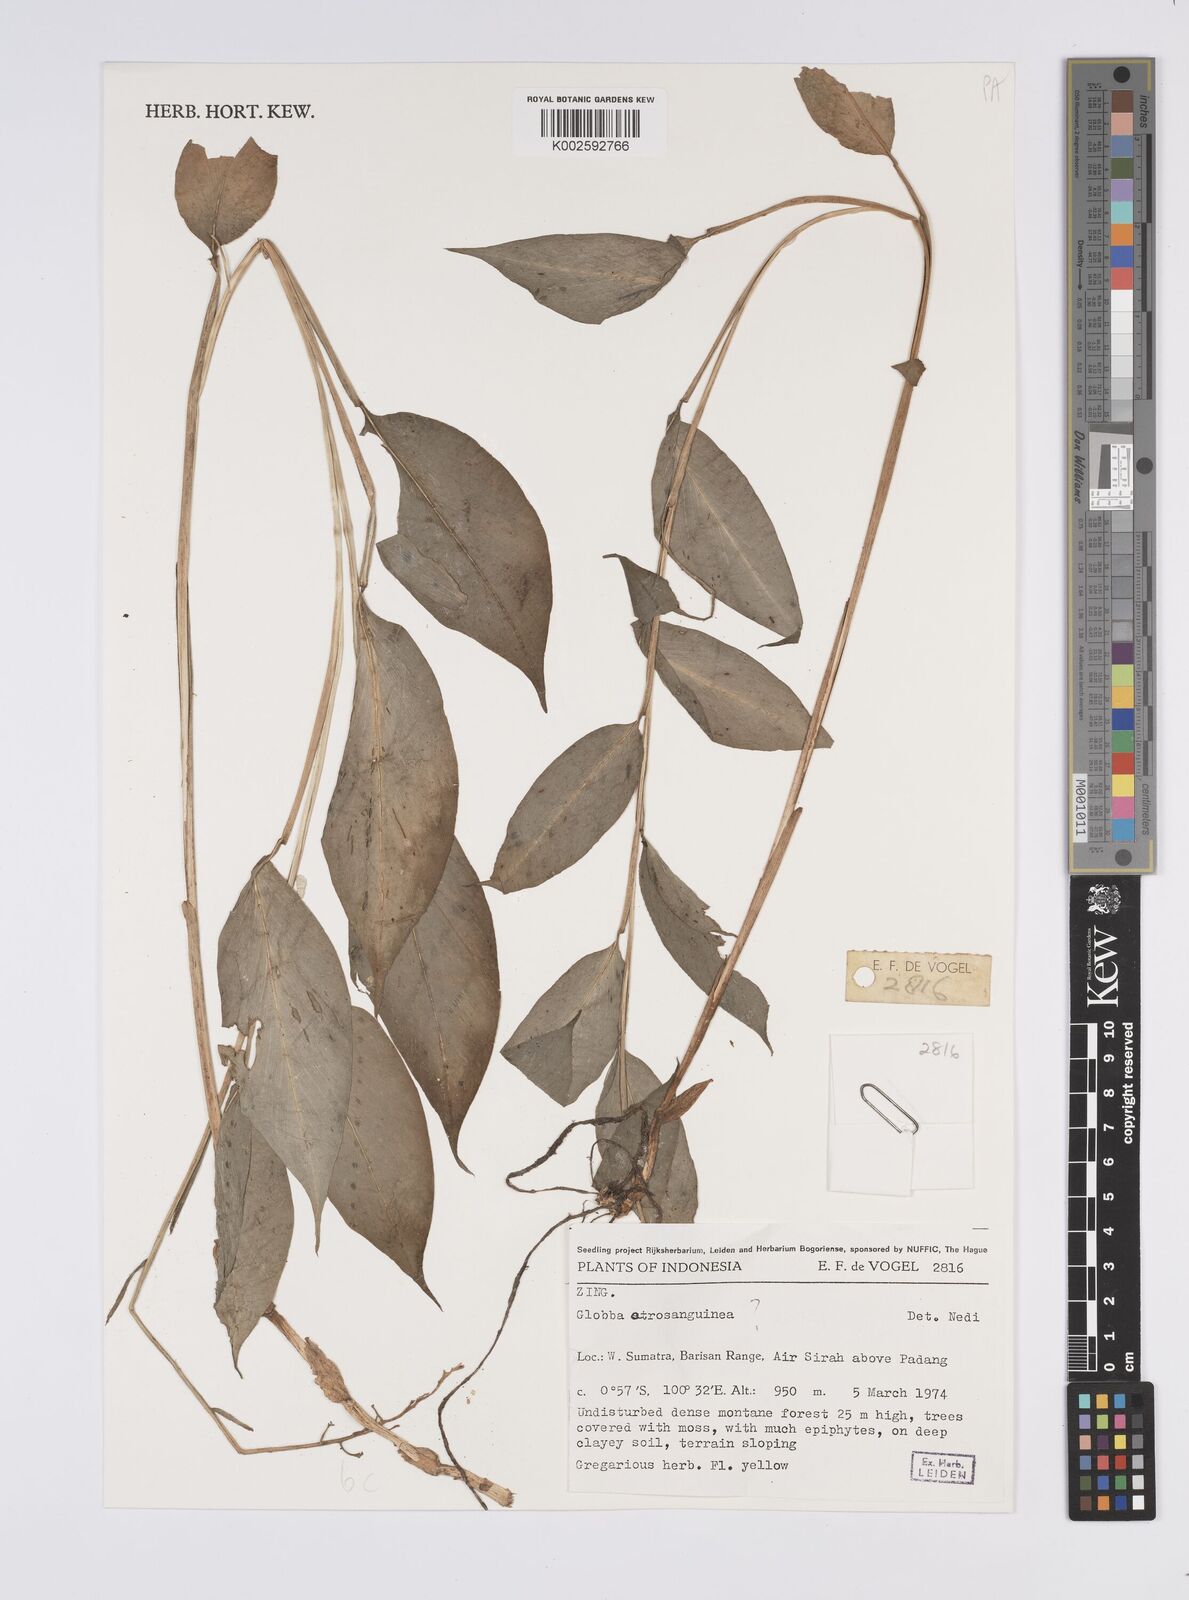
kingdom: Plantae
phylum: Tracheophyta
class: Liliopsida
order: Zingiberales
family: Zingiberaceae
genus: Globba
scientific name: Globba atrosanguinea
